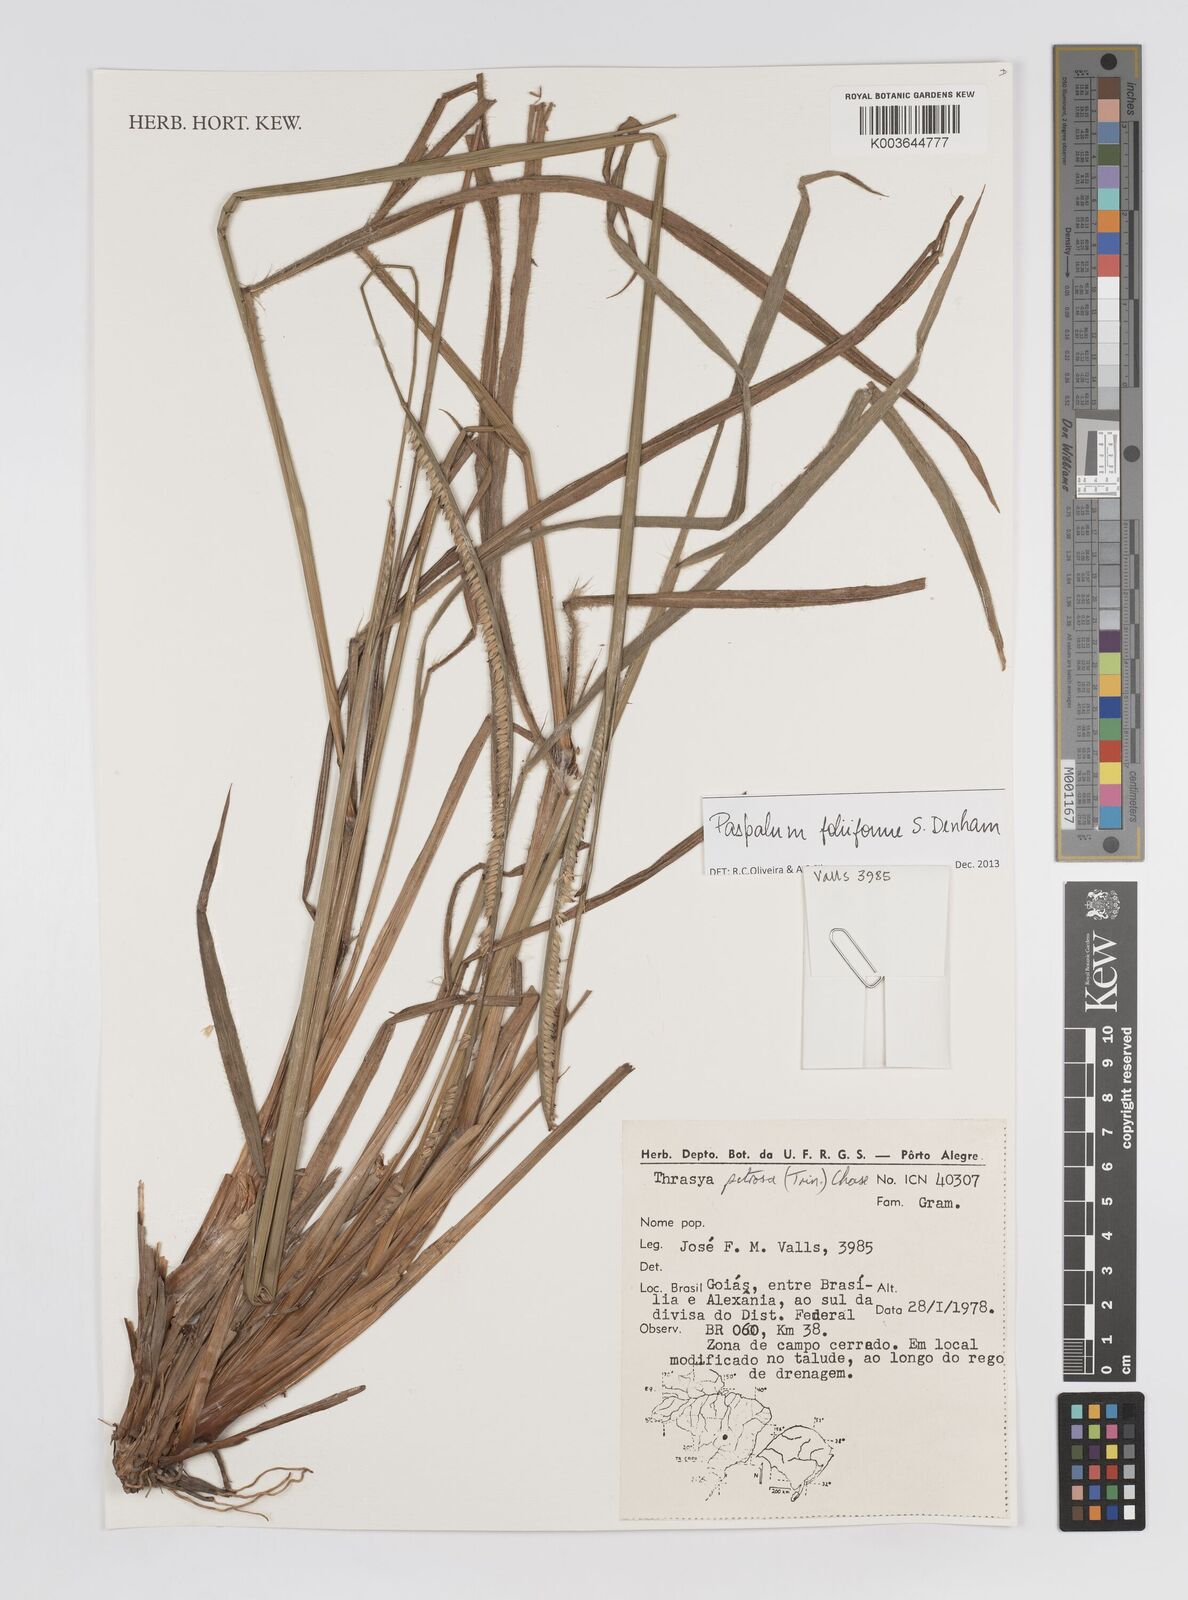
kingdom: Plantae
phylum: Tracheophyta
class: Liliopsida
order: Poales
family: Poaceae
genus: Paspalum
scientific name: Paspalum foliiforme
